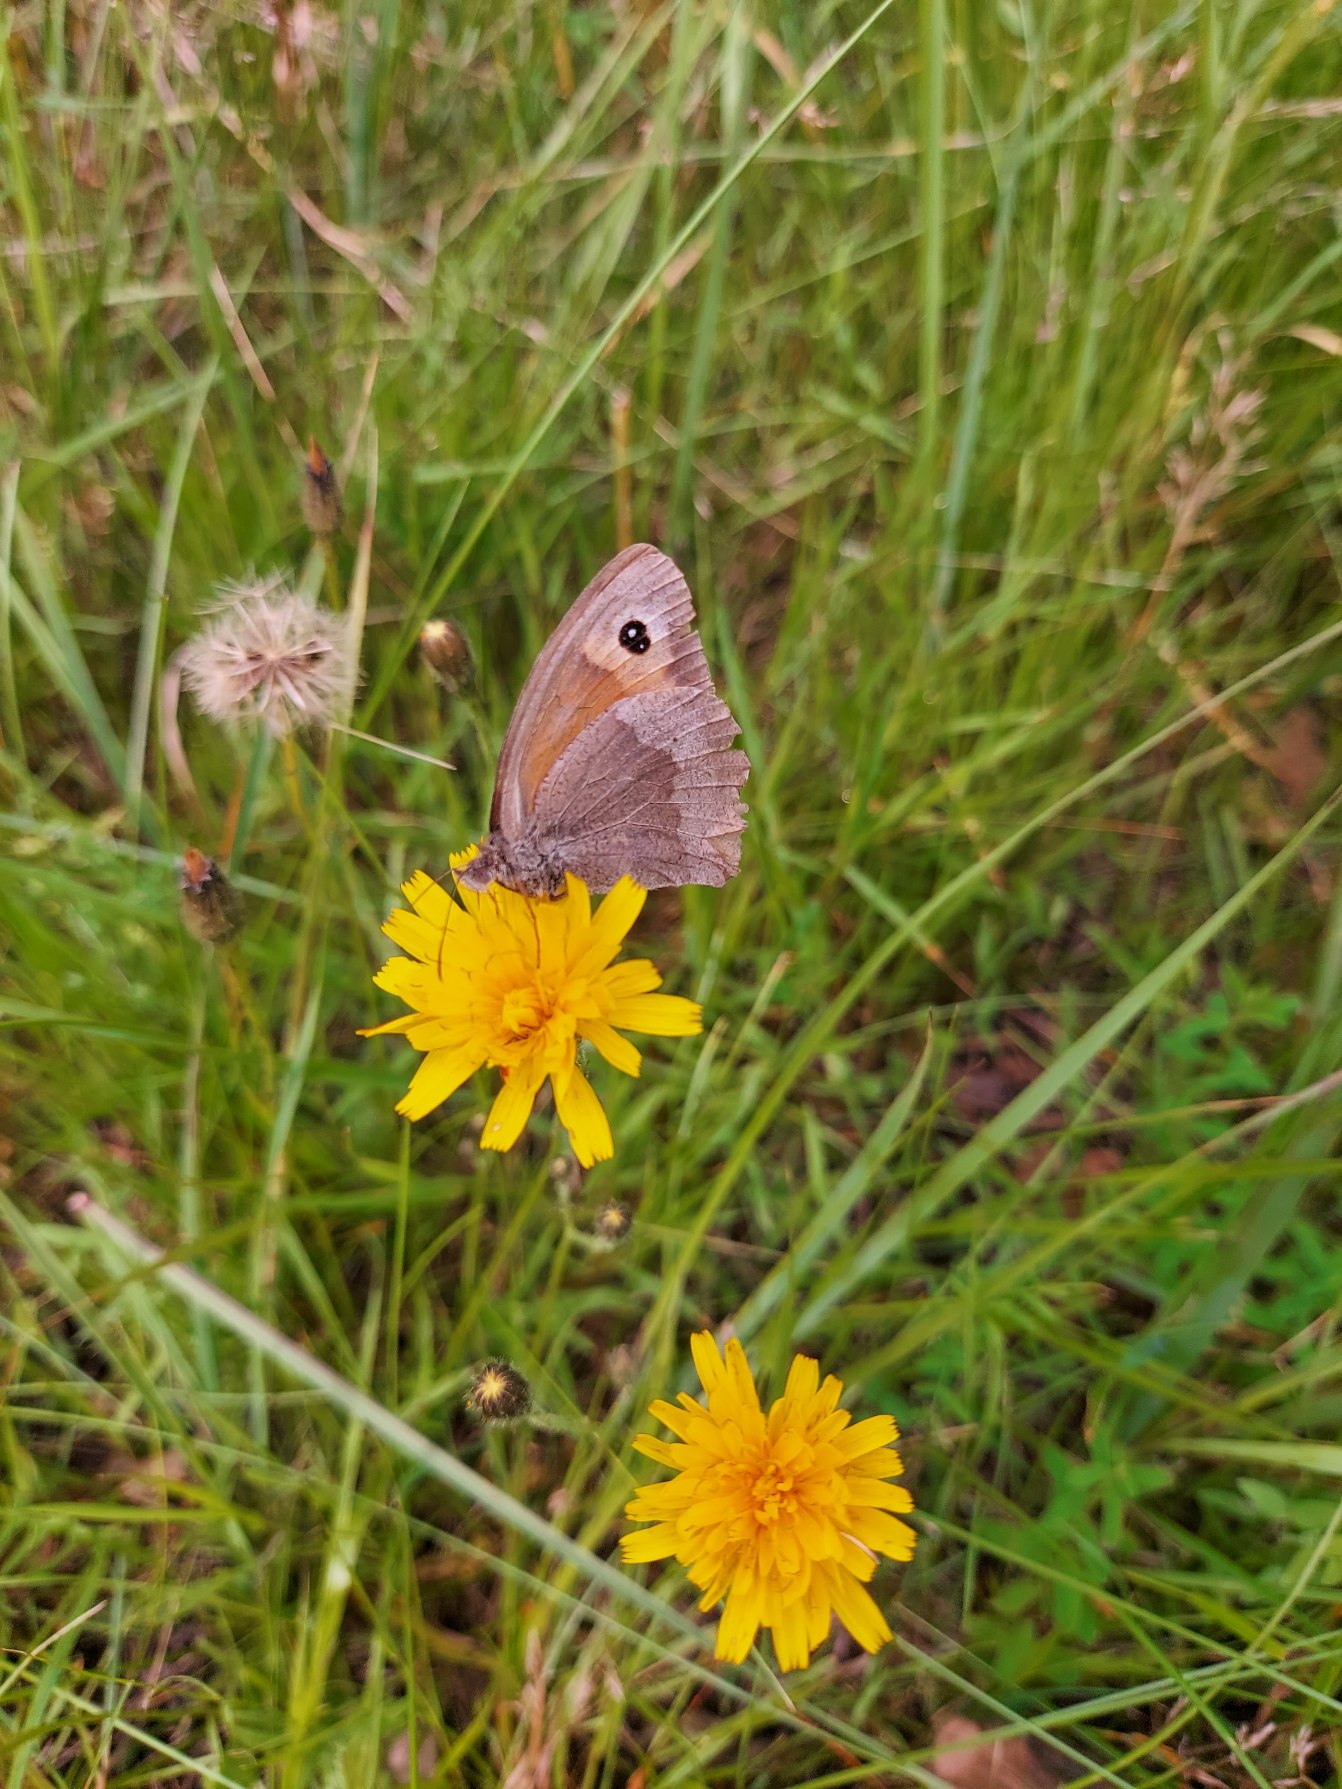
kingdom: Animalia
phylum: Arthropoda
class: Insecta
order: Lepidoptera
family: Nymphalidae
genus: Maniola
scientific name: Maniola jurtina
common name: Græsrandøje
